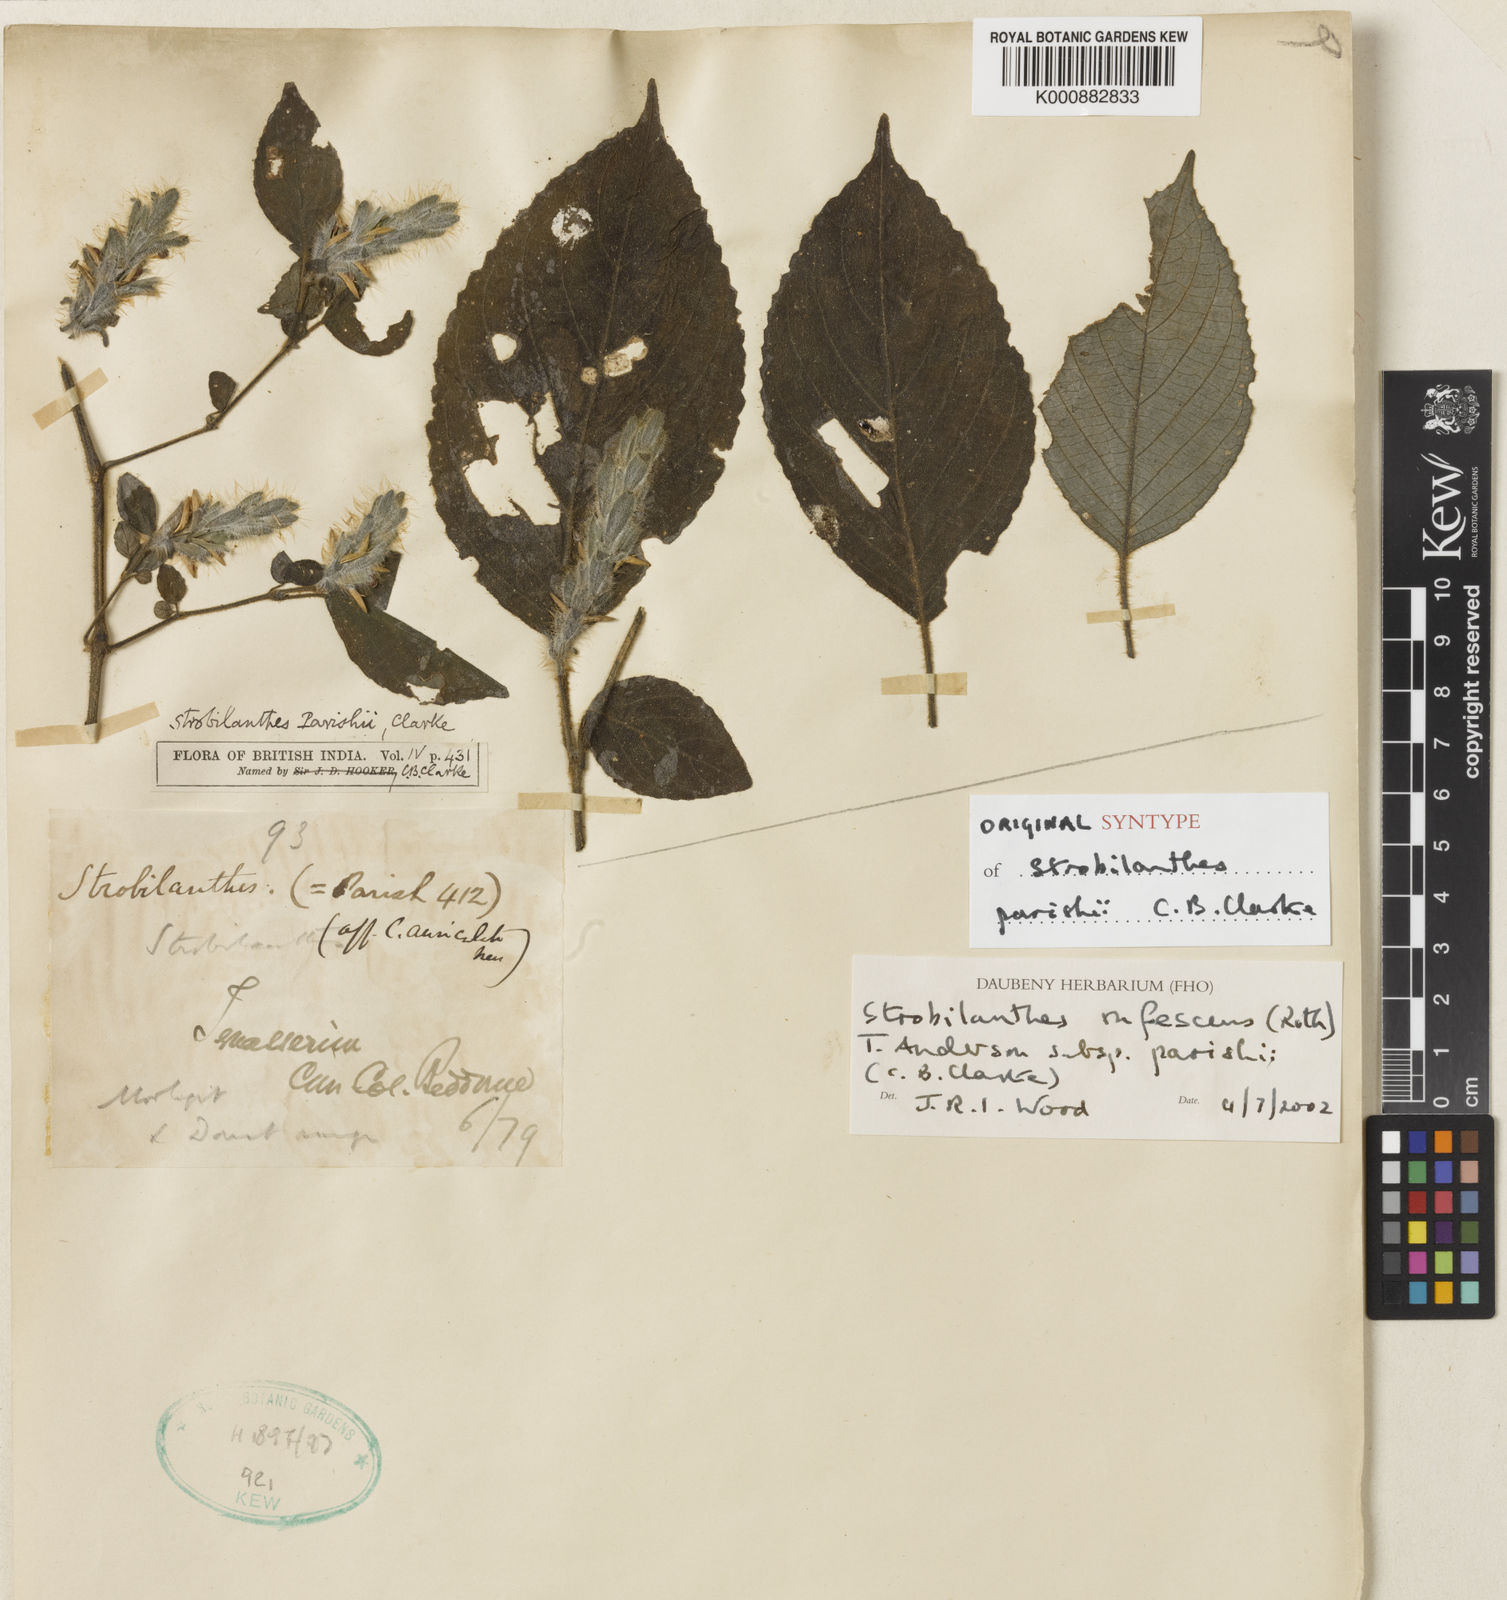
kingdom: Plantae
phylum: Tracheophyta
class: Magnoliopsida
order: Lamiales
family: Acanthaceae
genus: Strobilanthes
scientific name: Strobilanthes rufescens
